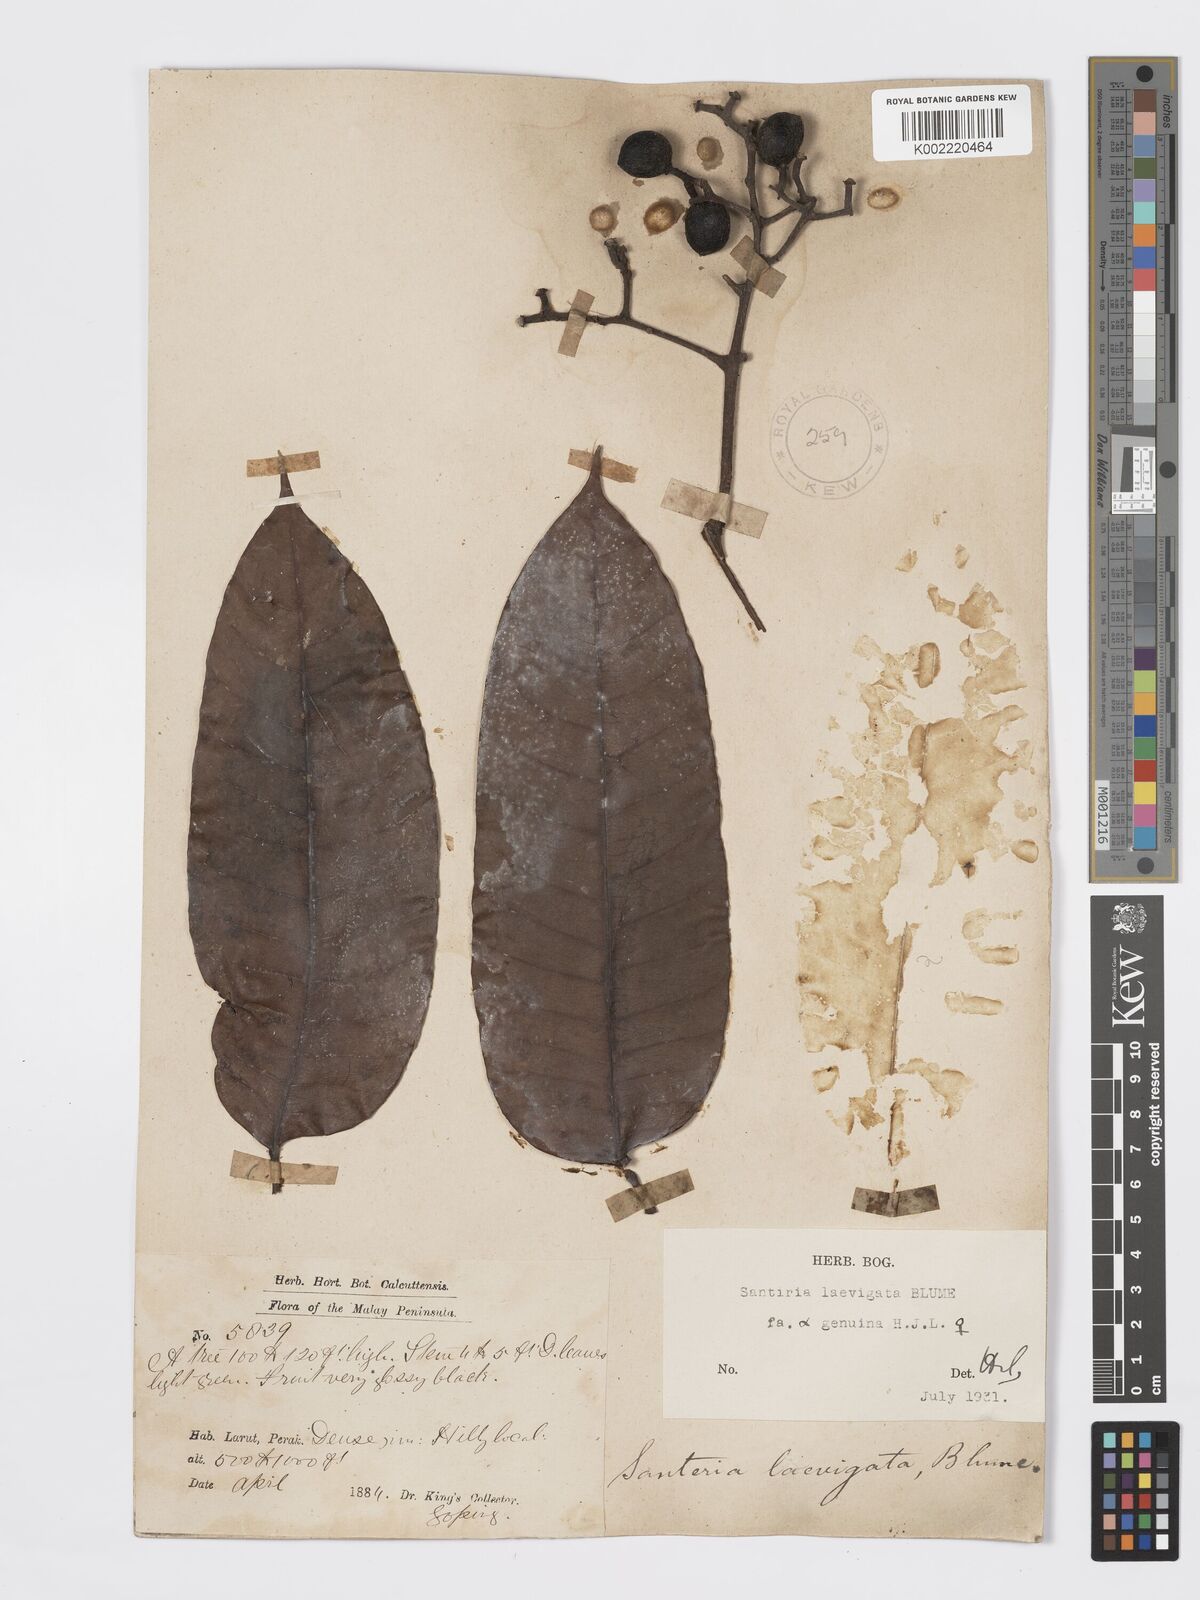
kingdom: Plantae
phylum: Tracheophyta
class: Magnoliopsida
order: Sapindales
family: Burseraceae
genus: Santiria
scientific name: Santiria laevigata
